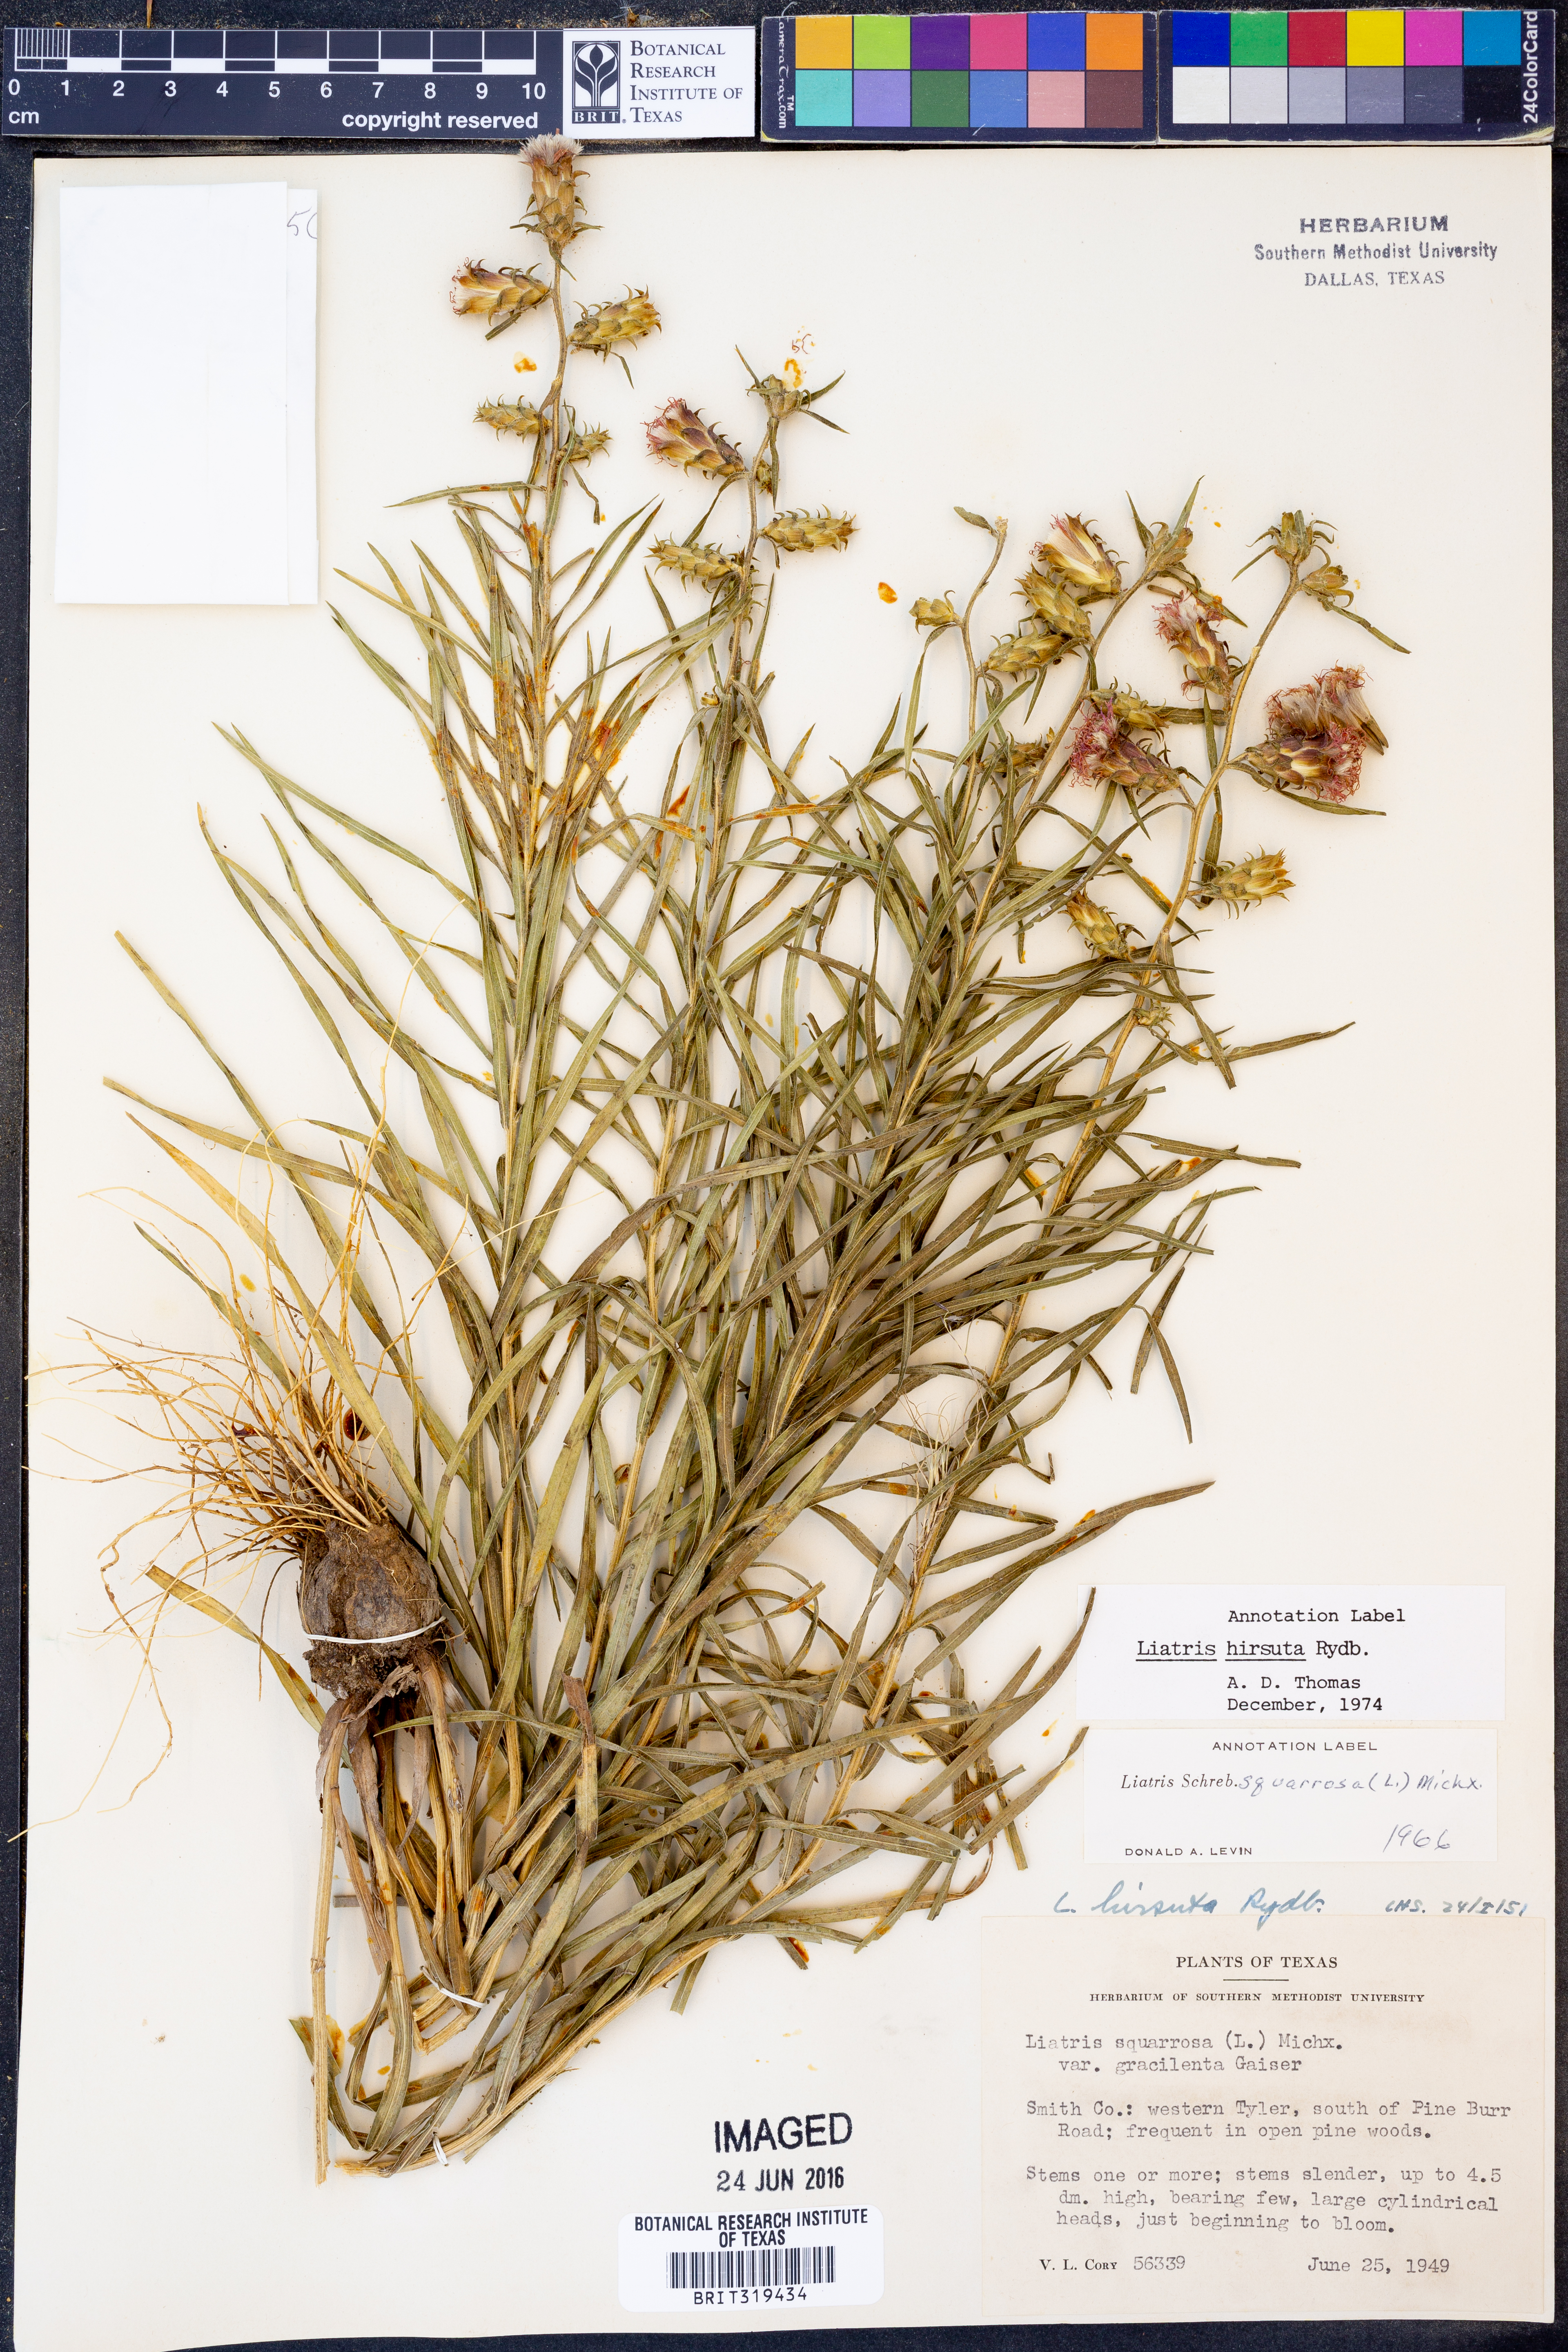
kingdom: Plantae
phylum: Tracheophyta
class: Magnoliopsida
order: Asterales
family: Asteraceae
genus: Liatris
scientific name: Liatris hirsuta
